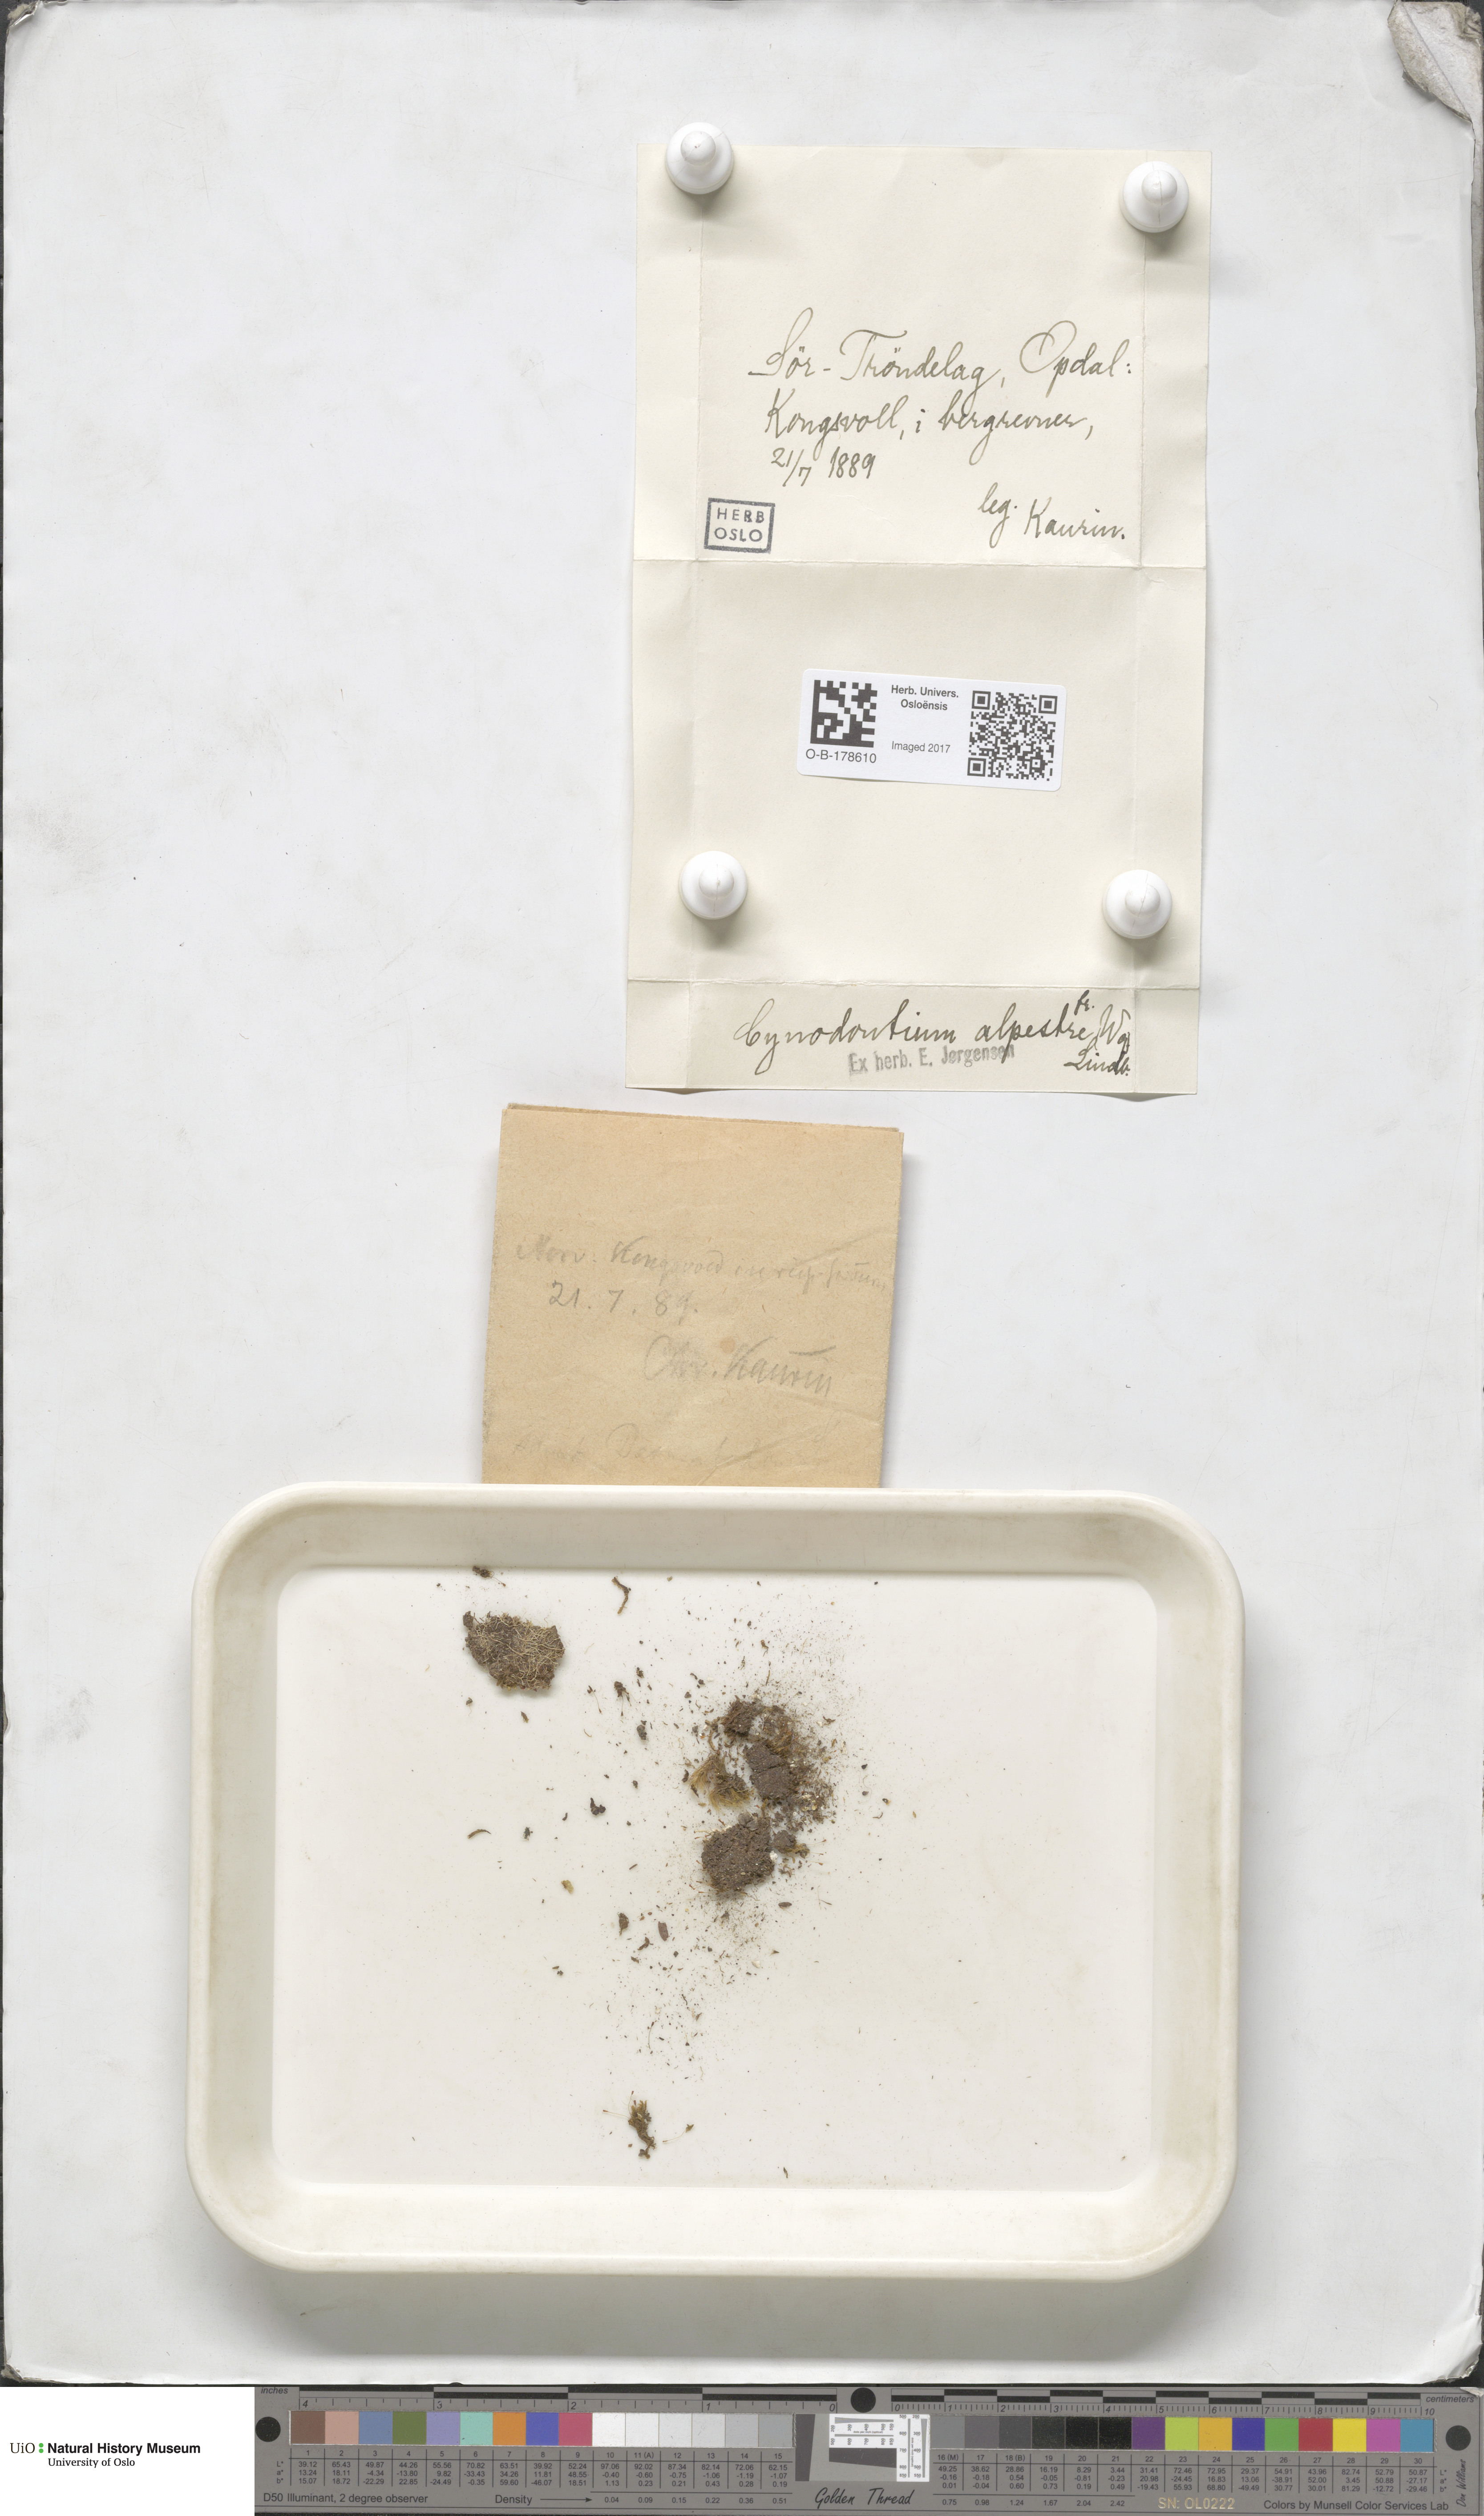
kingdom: Plantae
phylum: Bryophyta
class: Bryopsida
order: Dicranales
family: Rhabdoweisiaceae
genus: Cnestrum
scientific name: Cnestrum alpestre
